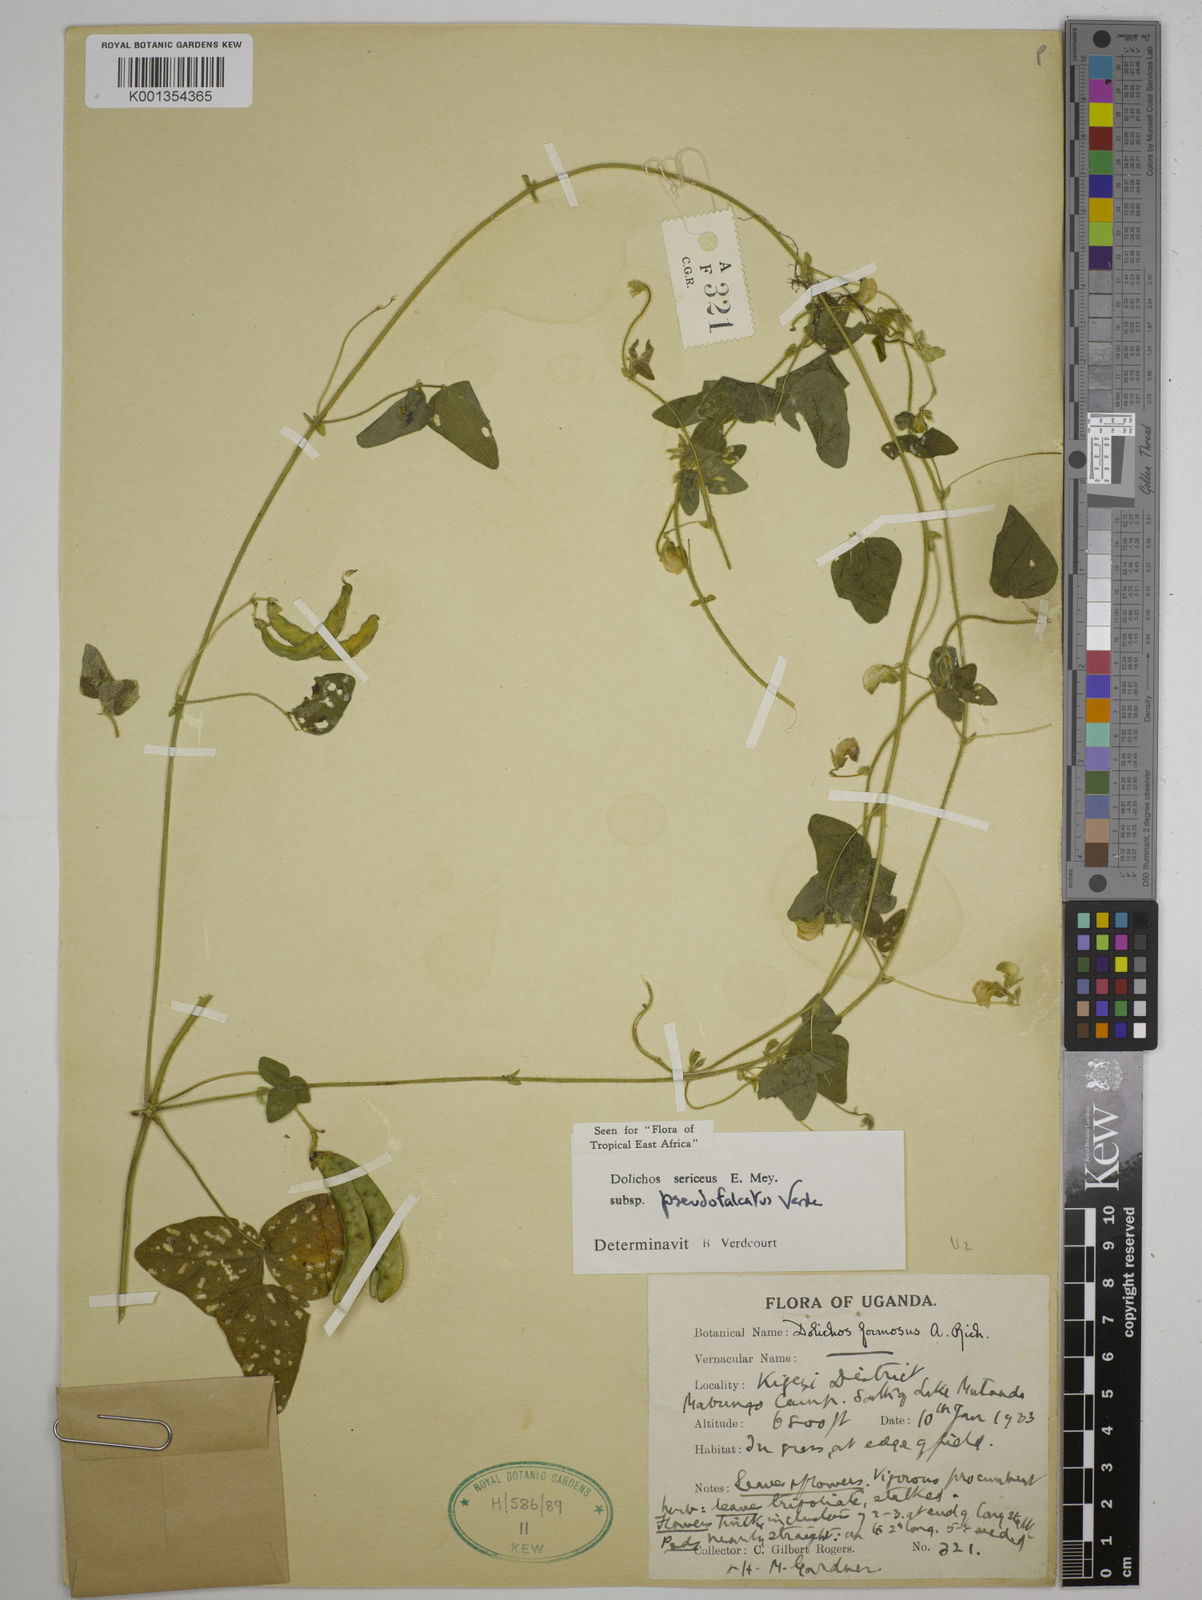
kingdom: Plantae
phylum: Tracheophyta
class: Magnoliopsida
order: Fabales
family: Fabaceae
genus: Dolichos
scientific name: Dolichos
